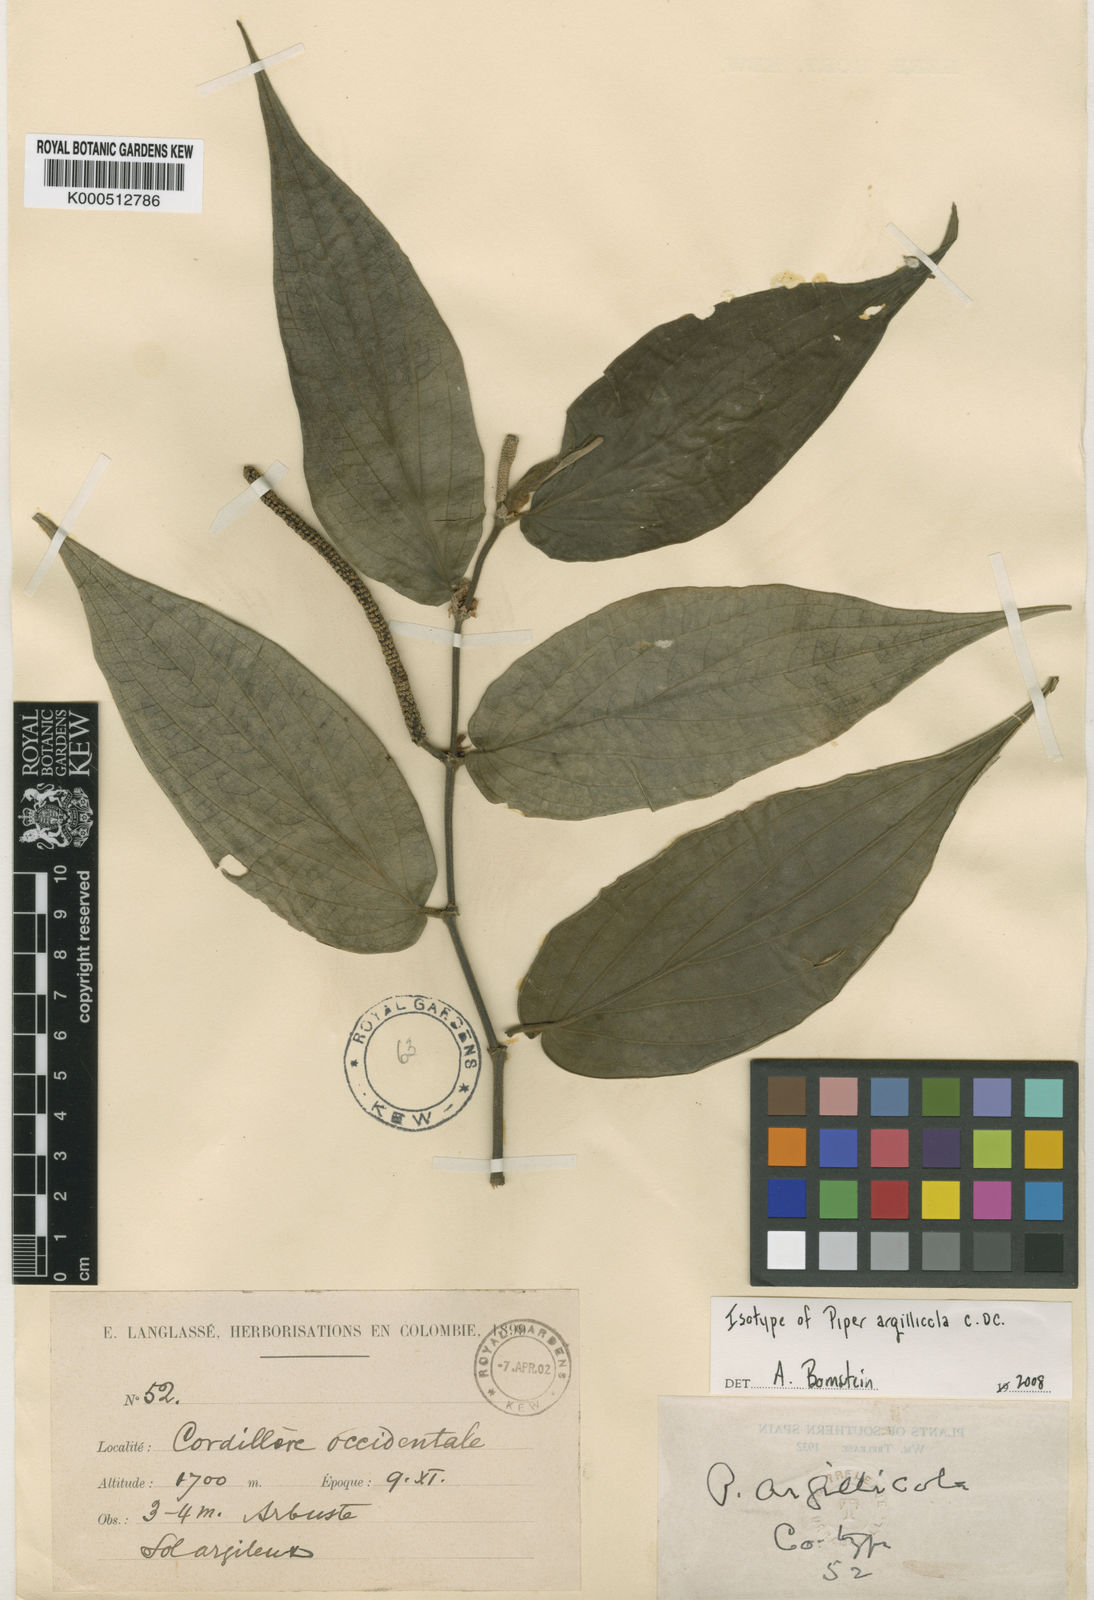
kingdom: Plantae
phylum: Tracheophyta
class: Magnoliopsida
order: Piperales
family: Piperaceae
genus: Piper
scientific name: Piper subflavum
